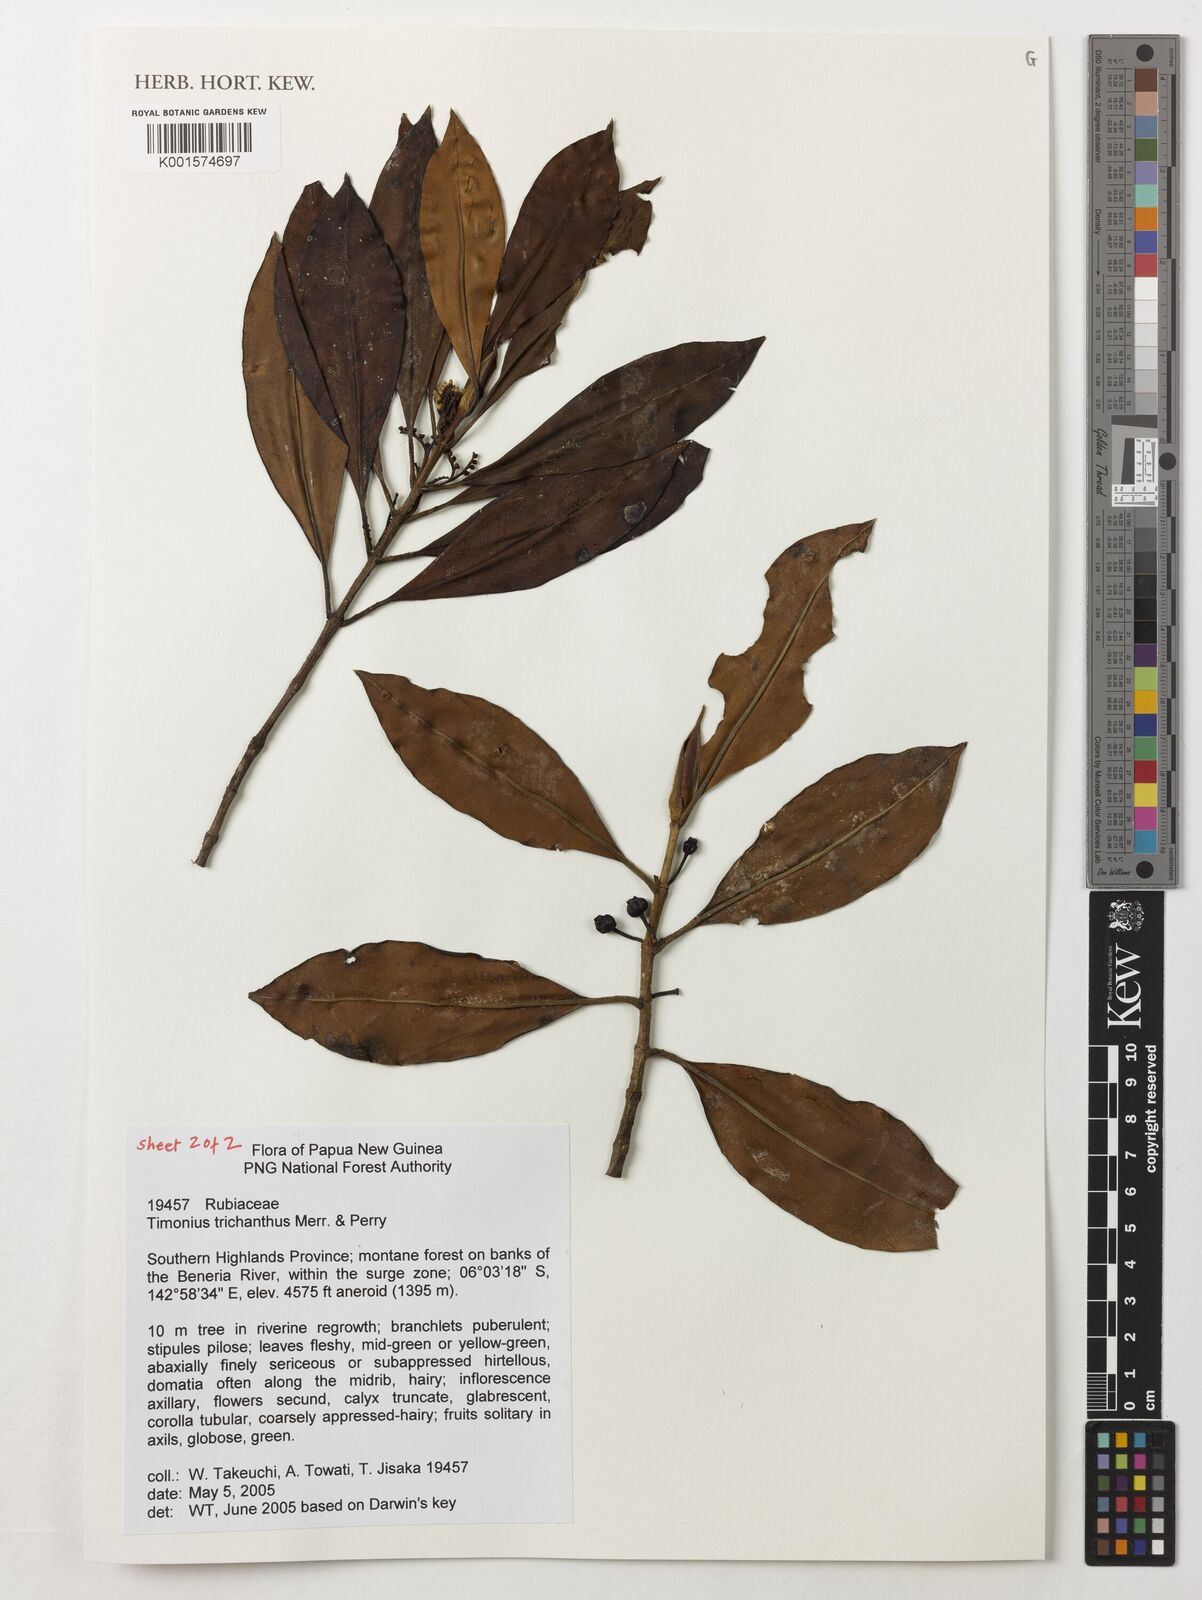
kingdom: Plantae
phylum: Tracheophyta
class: Magnoliopsida
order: Gentianales
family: Rubiaceae
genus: Timonius
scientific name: Timonius trichanthus
